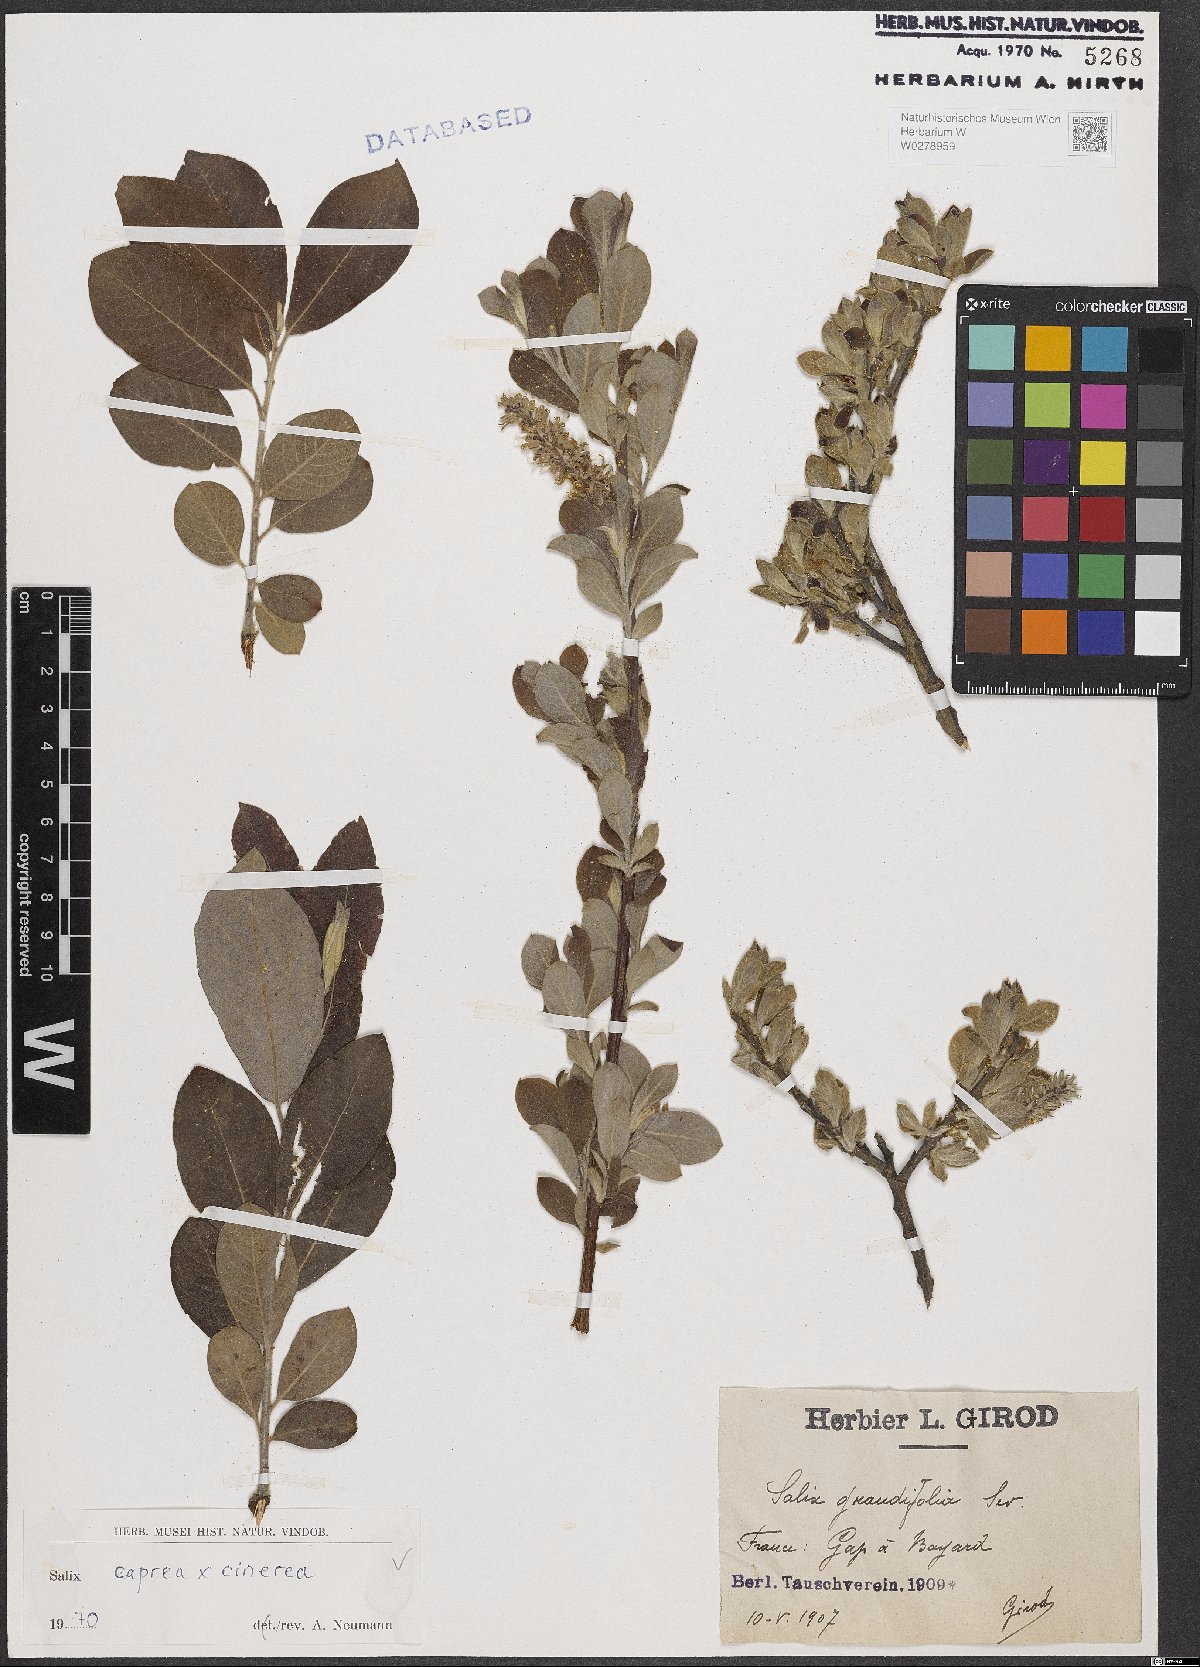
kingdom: Plantae
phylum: Tracheophyta
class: Magnoliopsida
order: Malpighiales
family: Salicaceae
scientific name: Salicaceae
